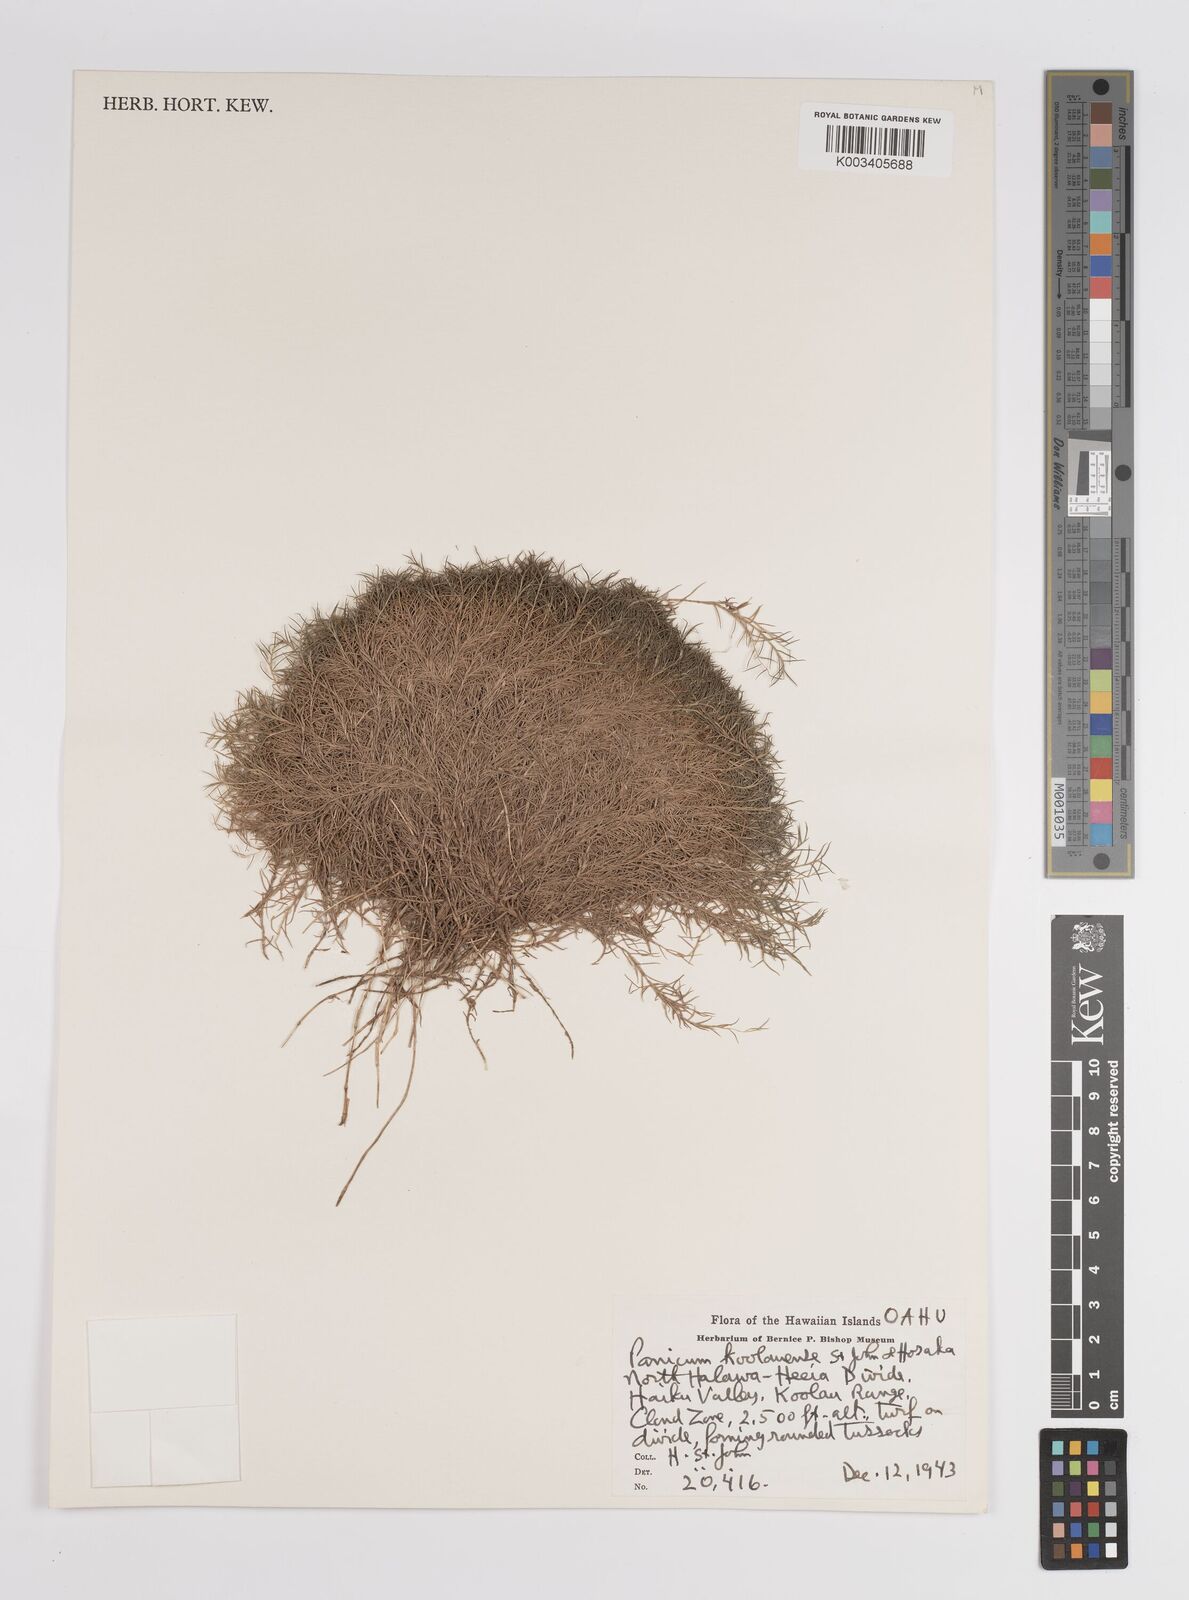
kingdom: Plantae
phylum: Tracheophyta
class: Liliopsida
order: Poales
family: Poaceae
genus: Dichanthelium
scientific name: Dichanthelium koolauense
